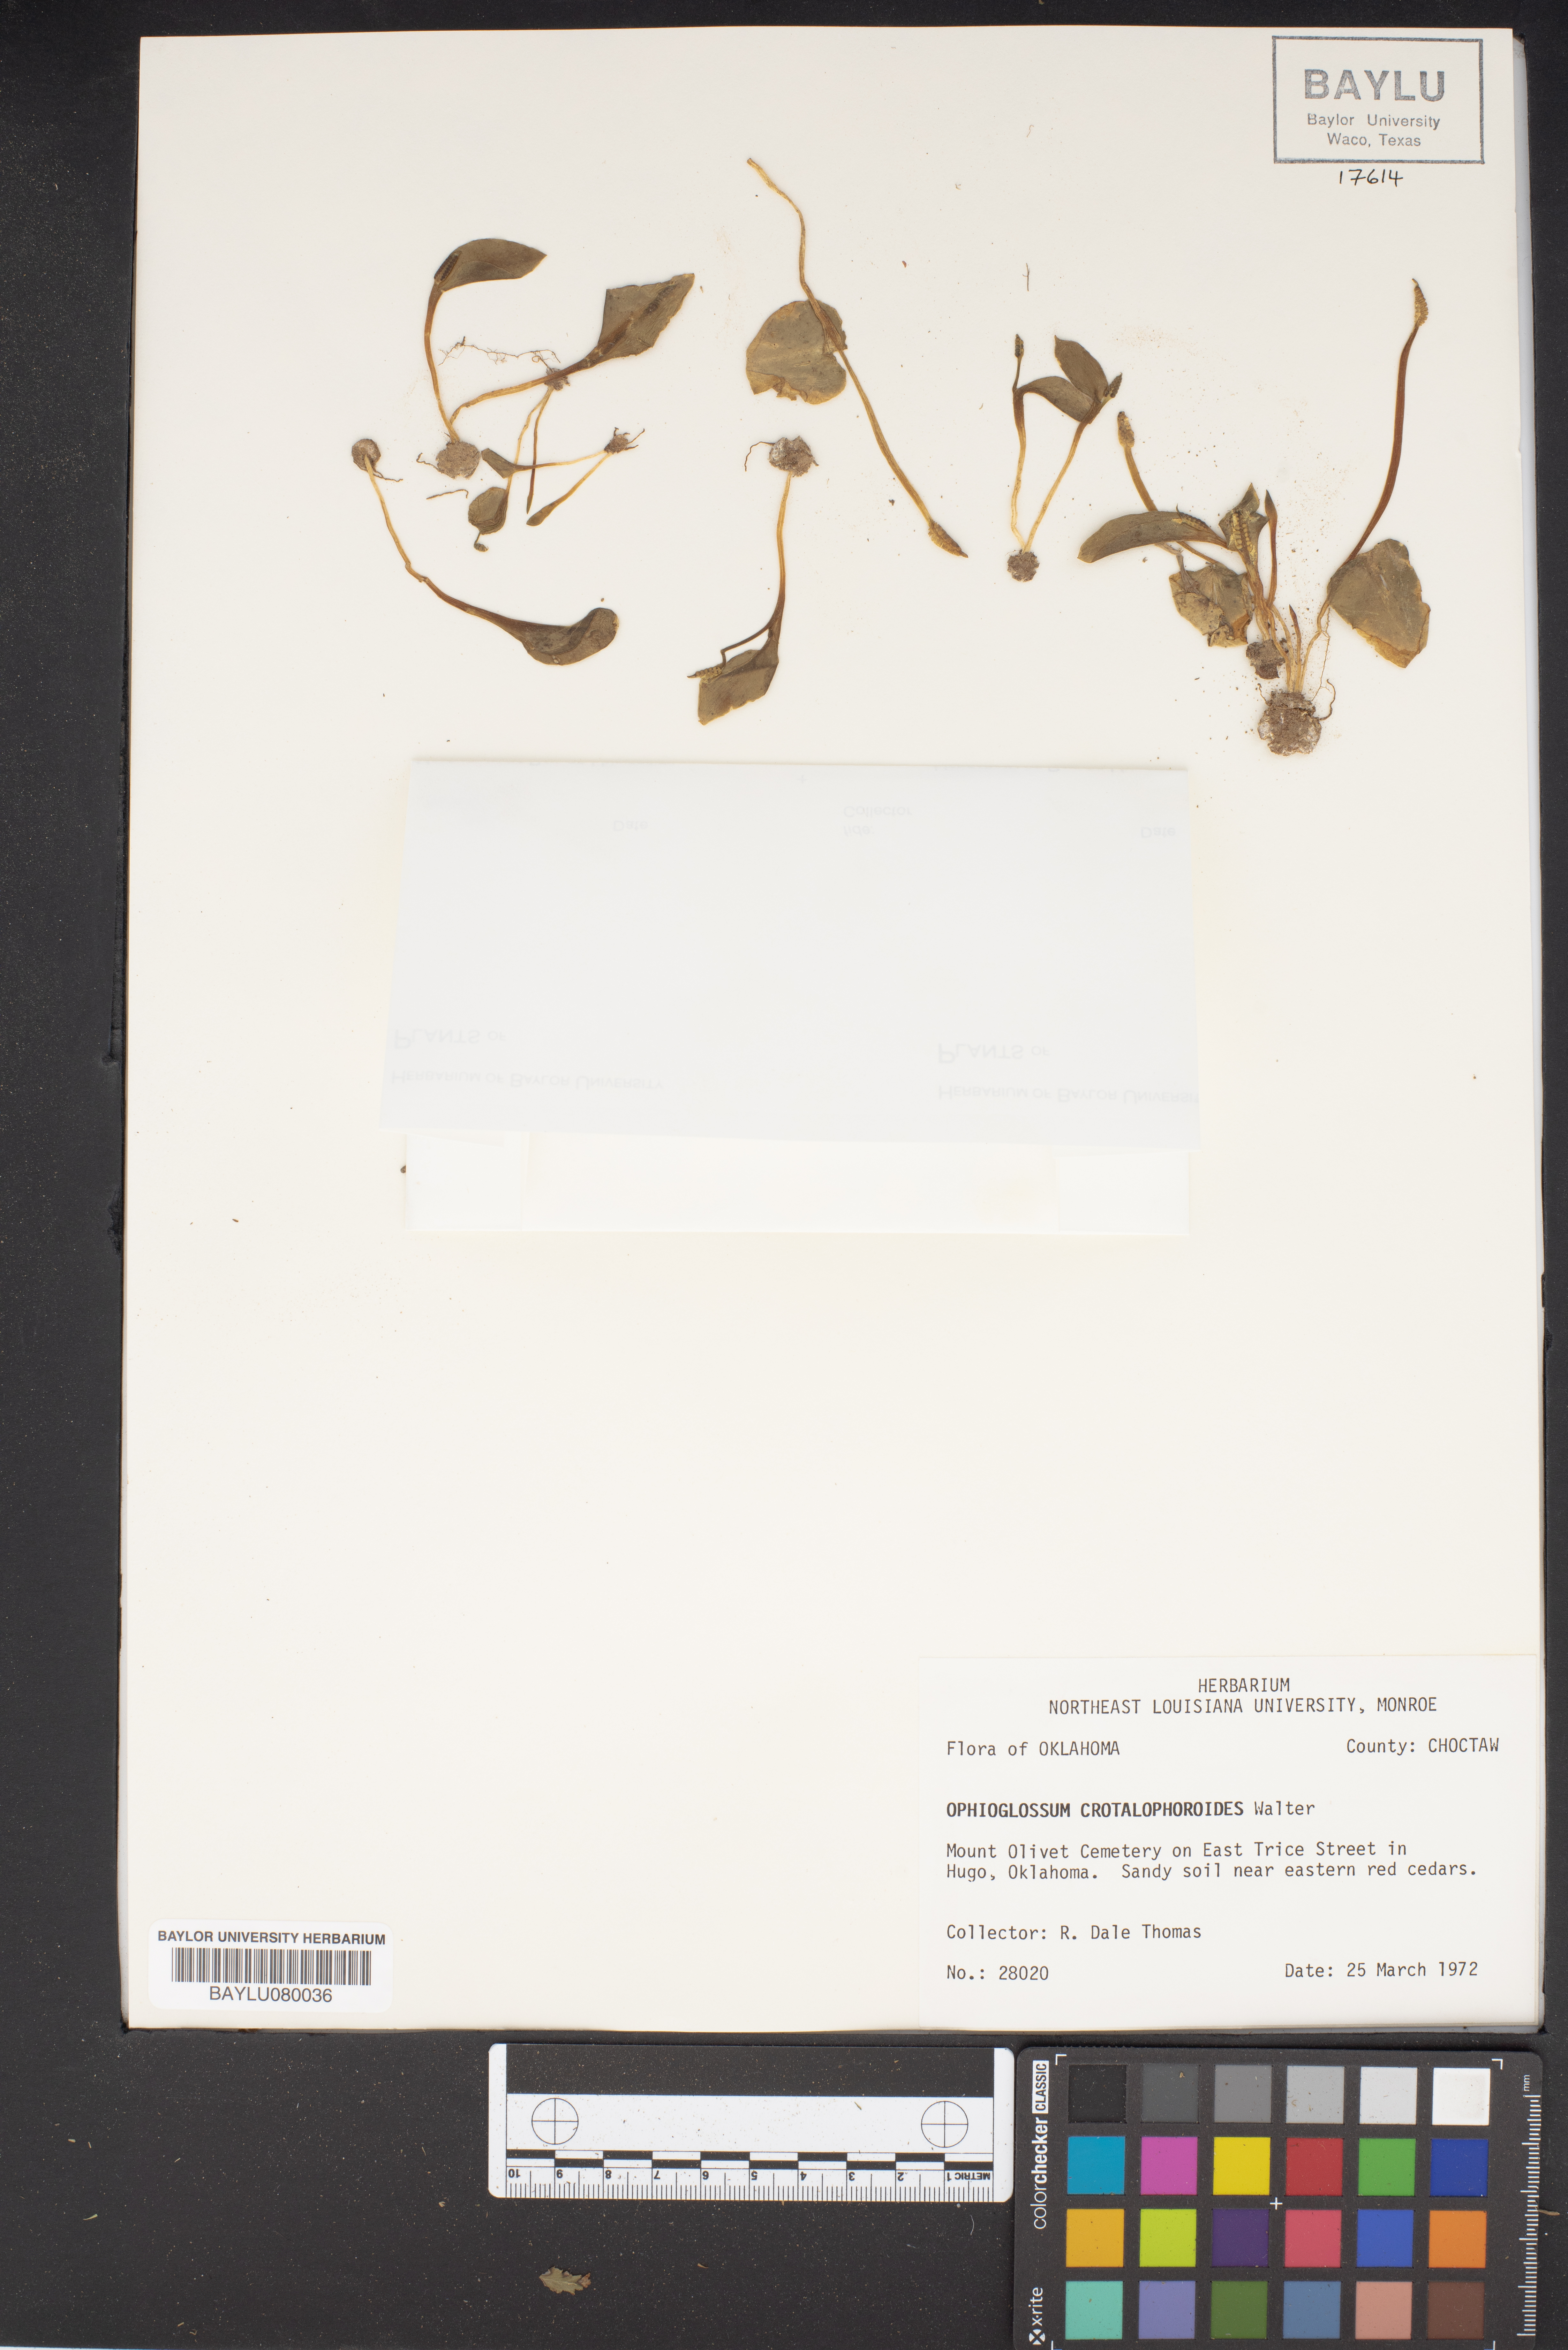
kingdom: Plantae
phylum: Tracheophyta
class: Polypodiopsida
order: Ophioglossales
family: Ophioglossaceae
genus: Ophioglossum
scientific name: Ophioglossum crotalophoroides
